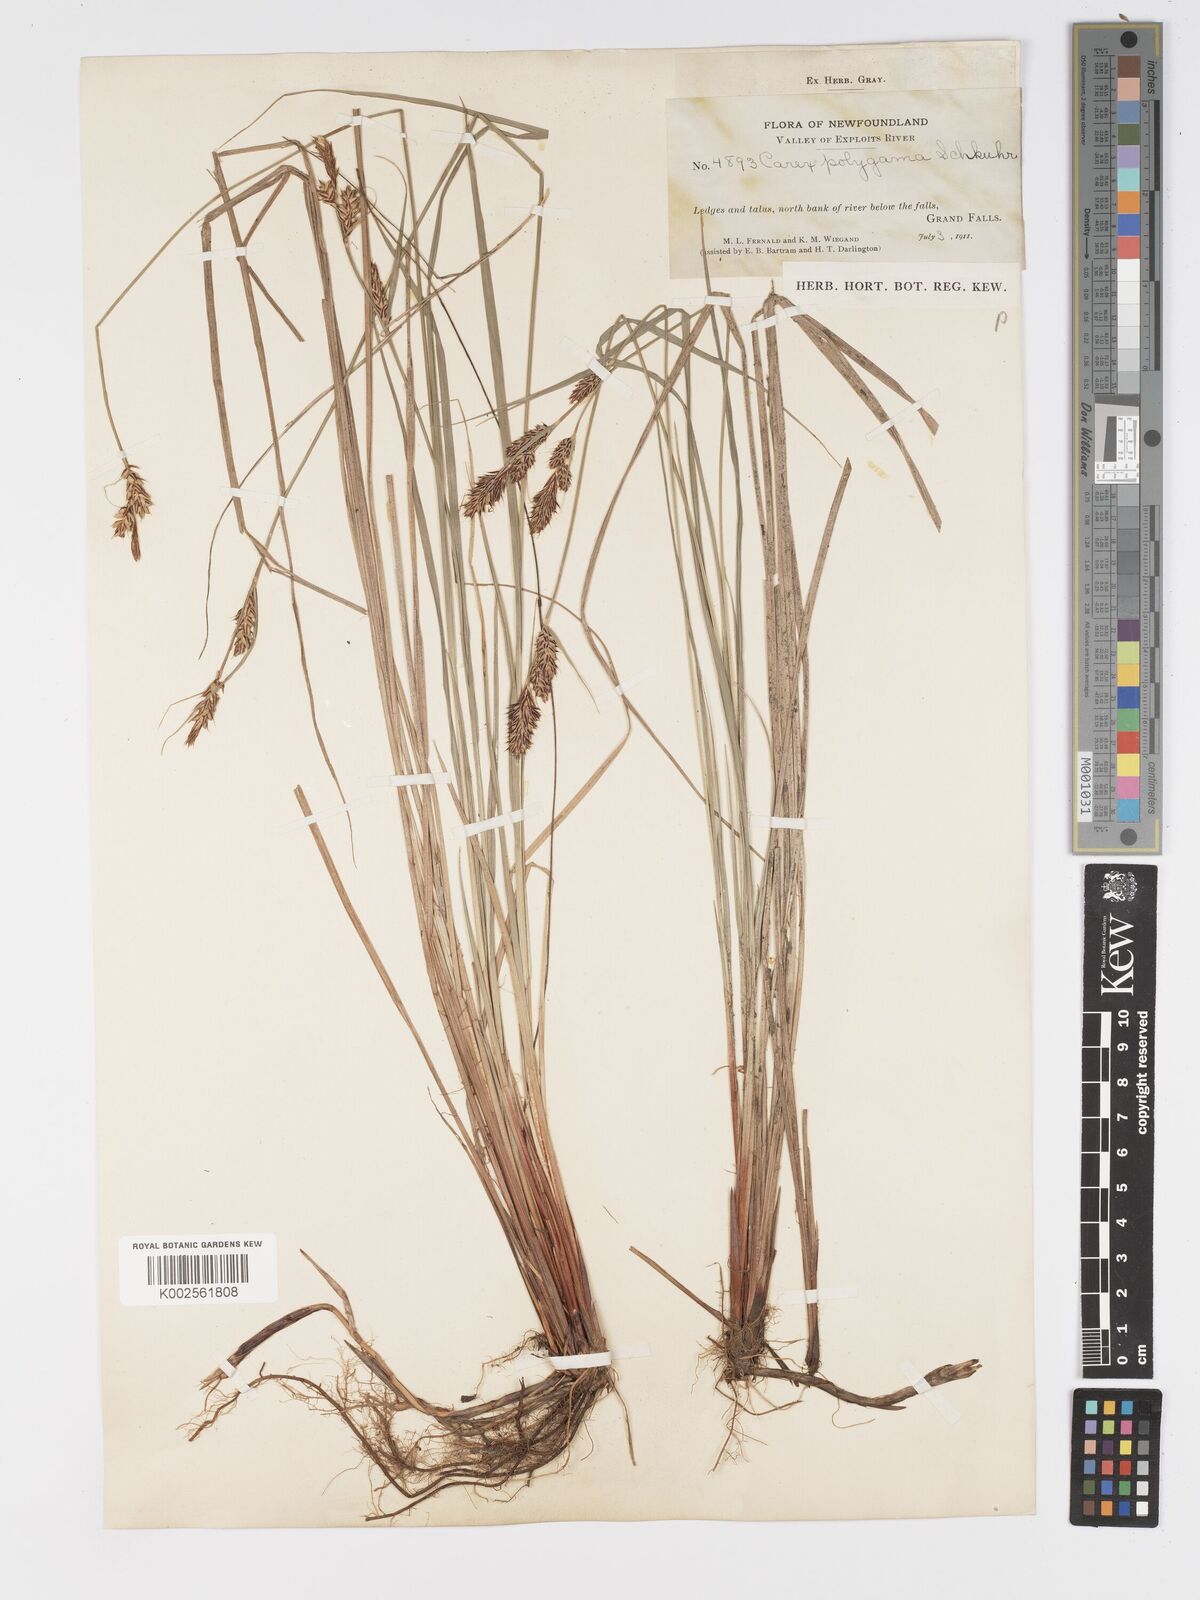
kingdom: Plantae
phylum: Tracheophyta
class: Liliopsida
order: Poales
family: Cyperaceae
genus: Carex
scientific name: Carex buxbaumii
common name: Club sedge
